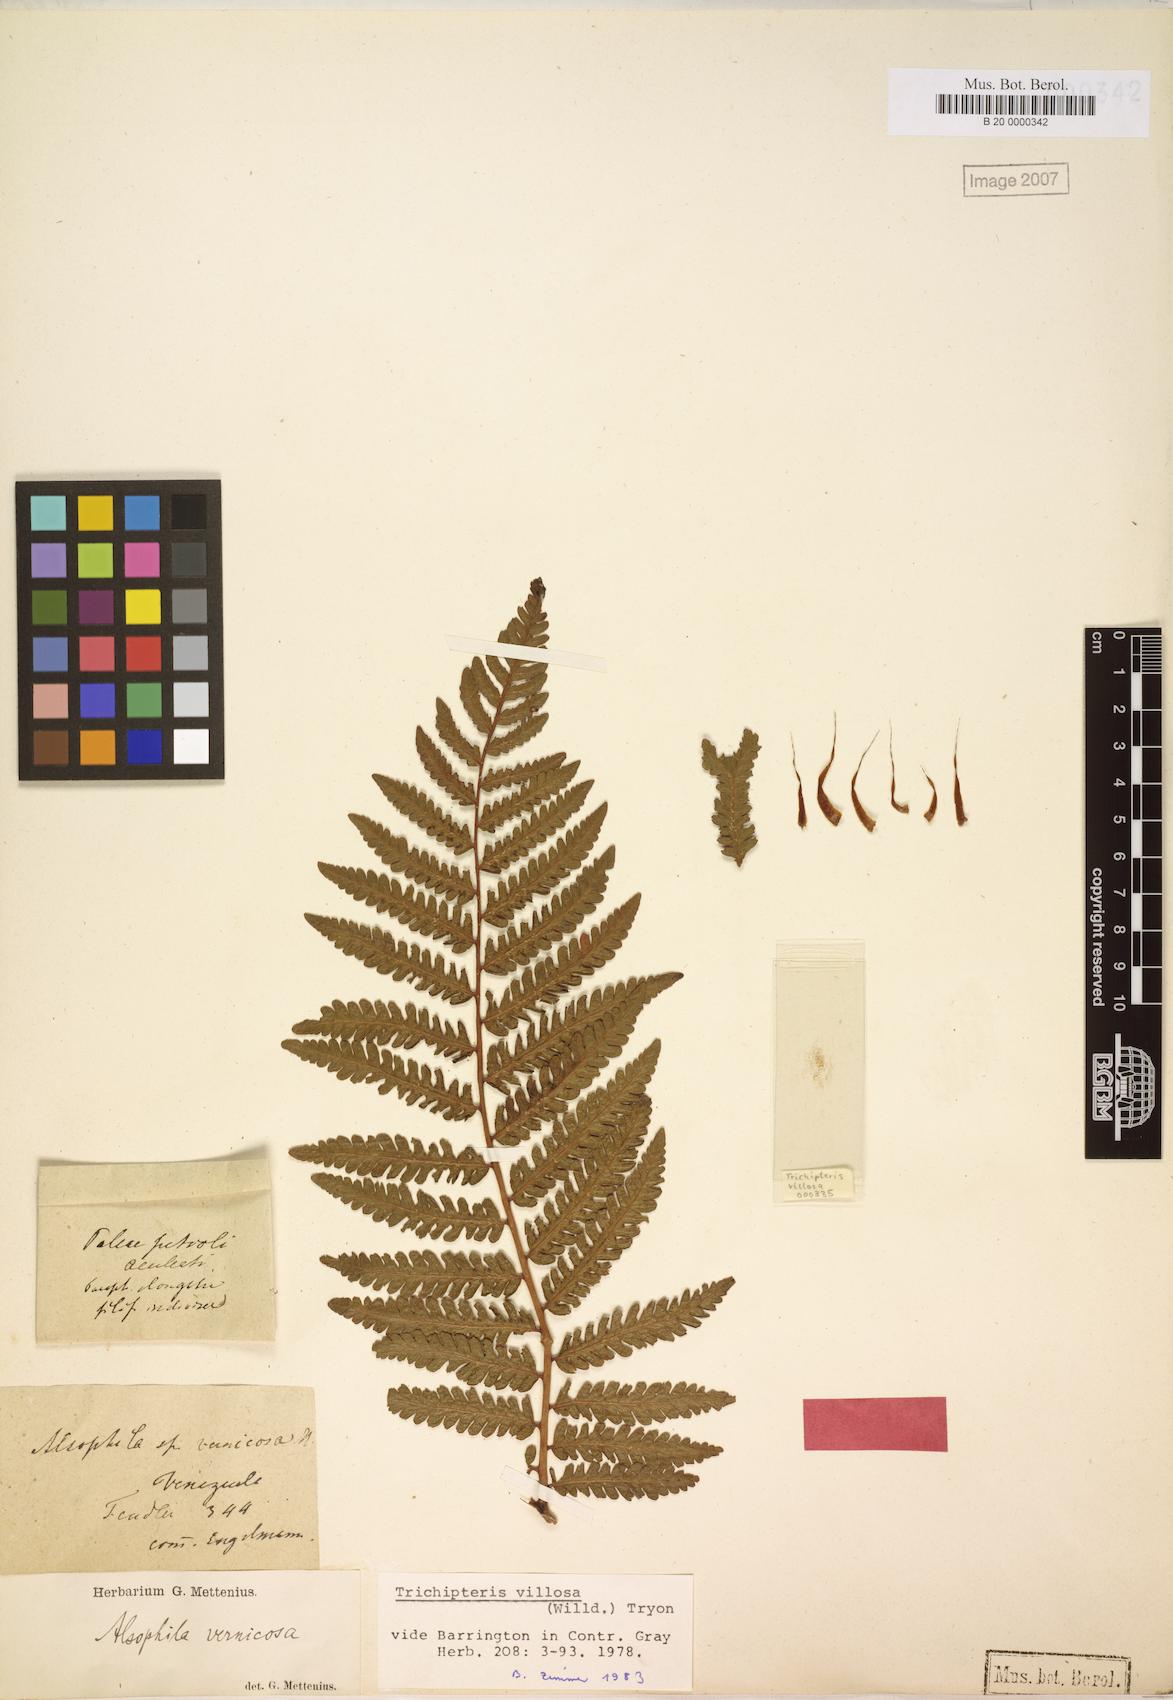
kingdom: Plantae
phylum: Tracheophyta
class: Polypodiopsida
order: Cyatheales
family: Cyatheaceae
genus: Cyathea
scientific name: Cyathea villosa
